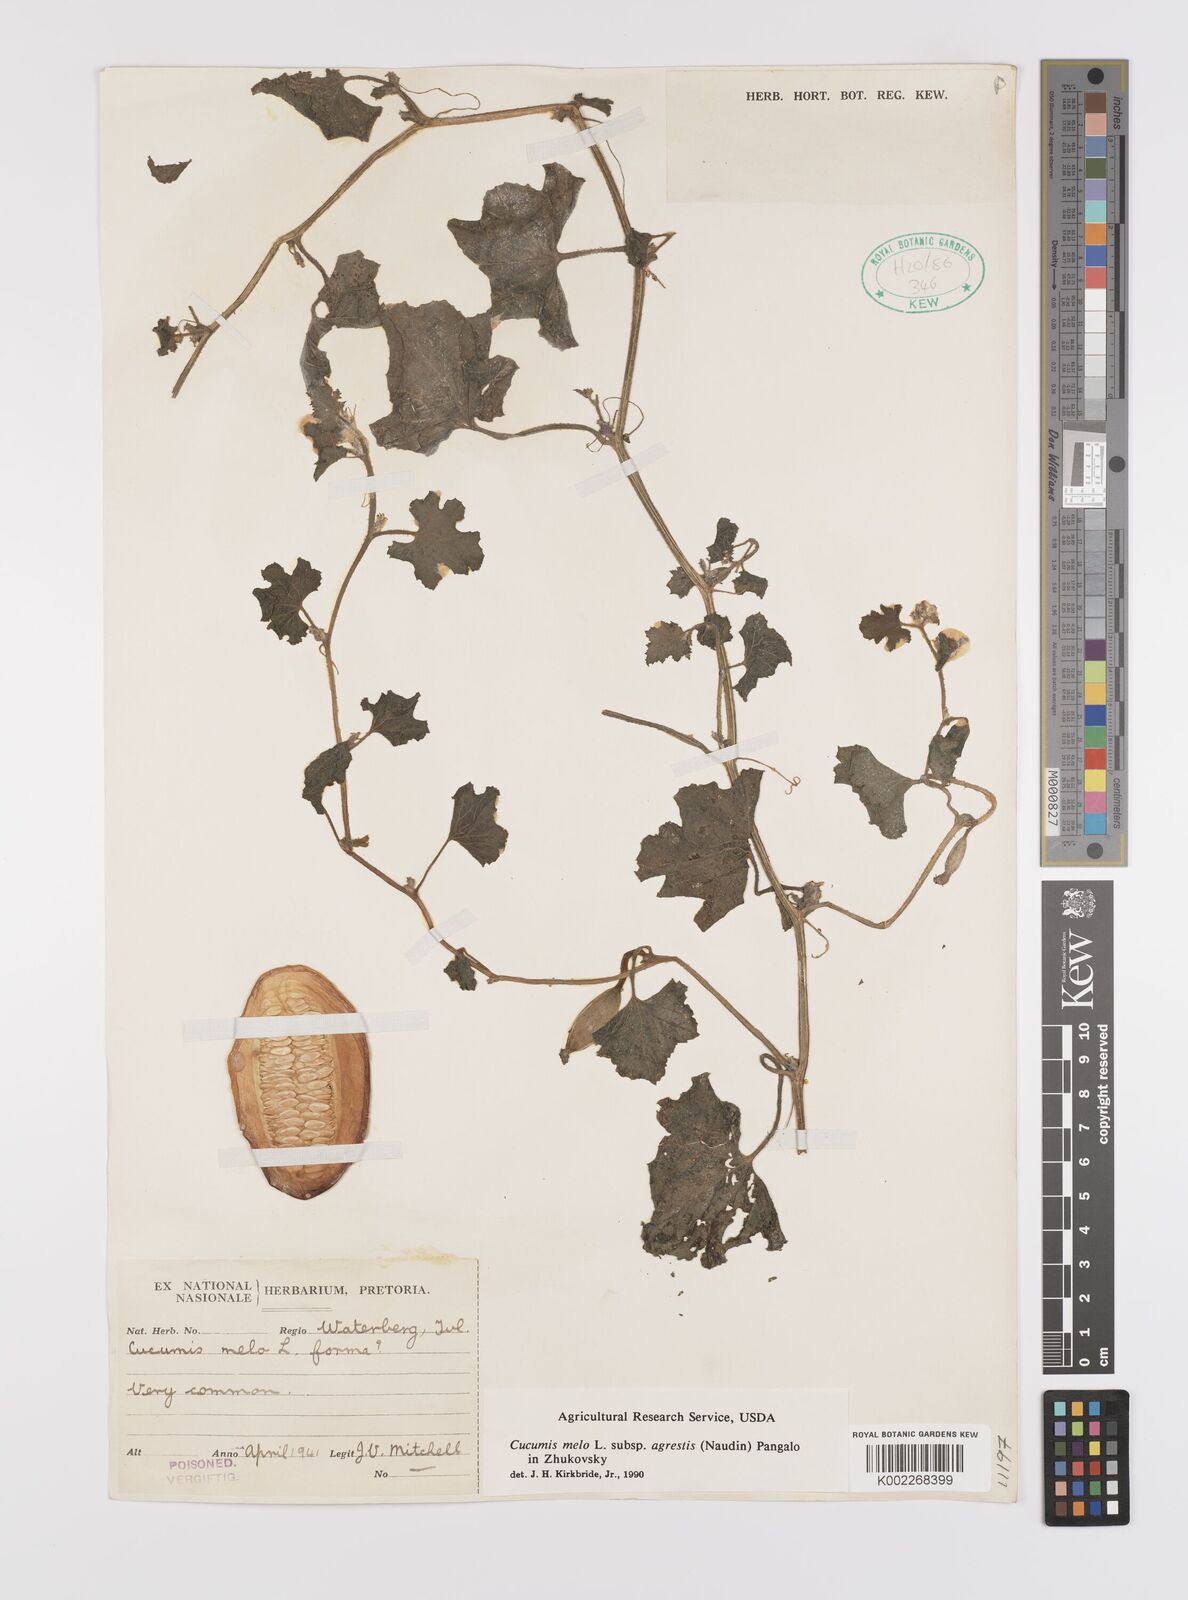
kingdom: Plantae
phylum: Tracheophyta
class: Magnoliopsida
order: Cucurbitales
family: Cucurbitaceae
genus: Cucumis
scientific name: Cucumis melo
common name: Melon
